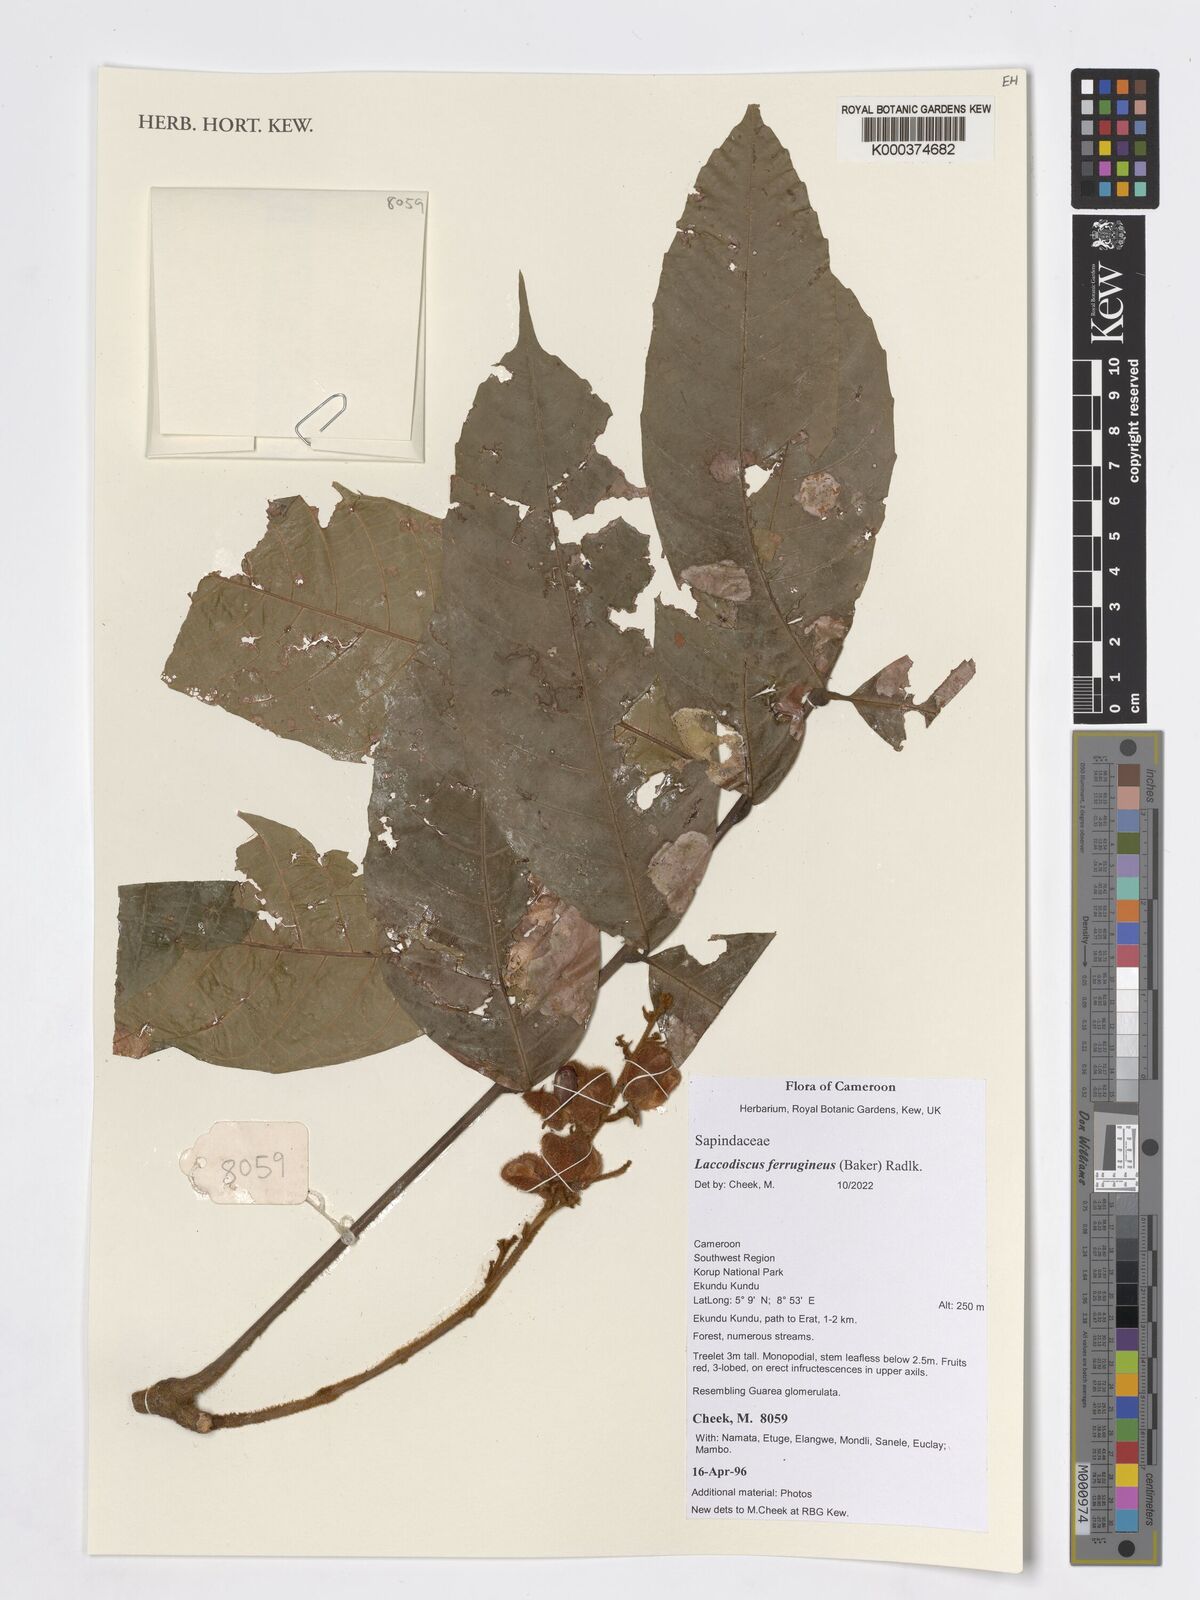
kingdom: Plantae
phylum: Tracheophyta
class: Magnoliopsida
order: Sapindales
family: Sapindaceae
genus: Laccodiscus
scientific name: Laccodiscus ferrugineus
